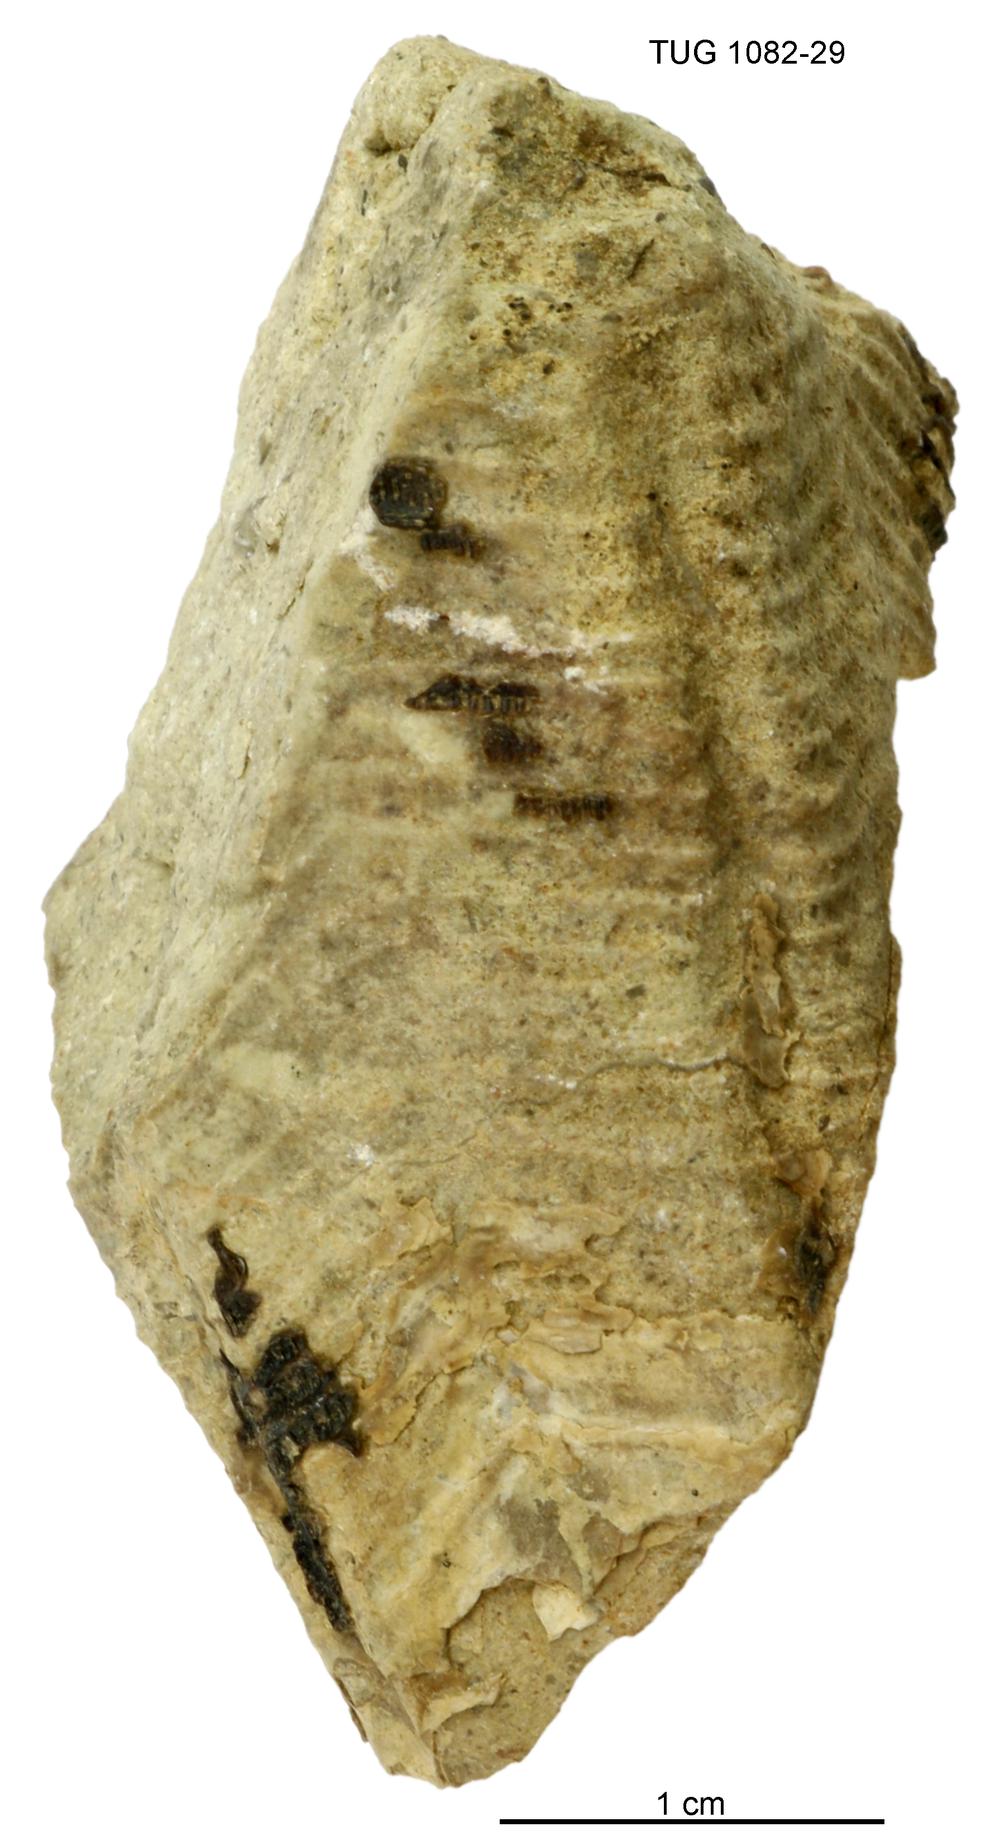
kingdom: Animalia
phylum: Cnidaria
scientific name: Cnidaria
